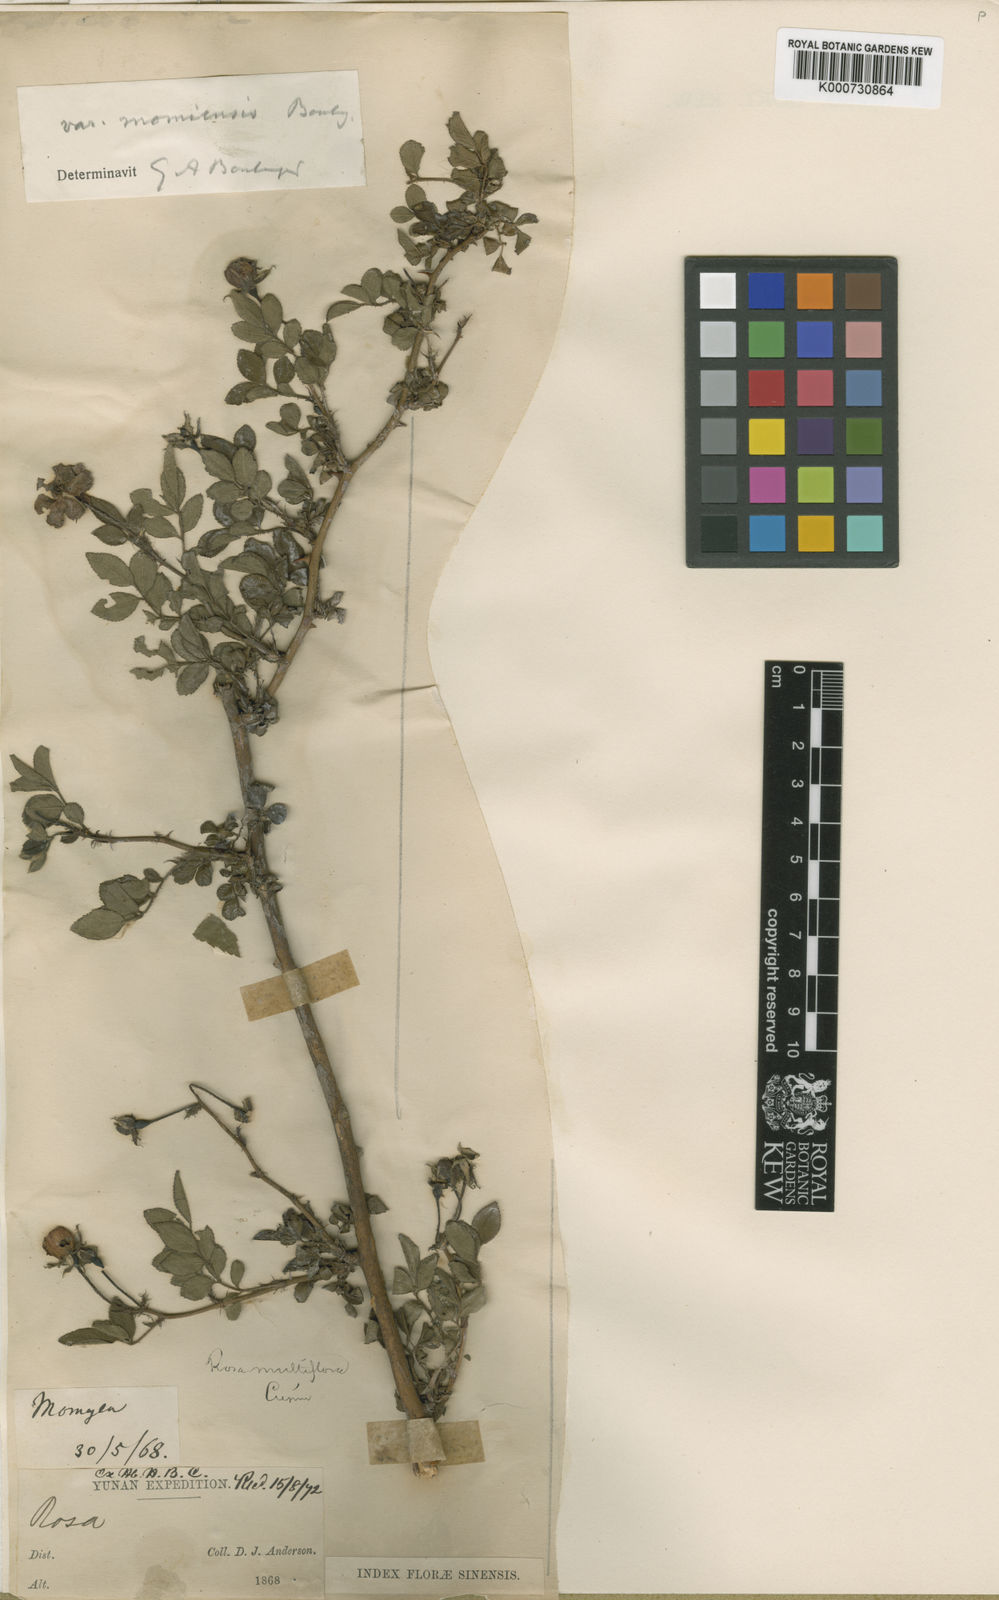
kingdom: Plantae
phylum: Tracheophyta
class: Magnoliopsida
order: Rosales
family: Rosaceae
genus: Rosa
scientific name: Rosa multiflora
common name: Multiflora rose
